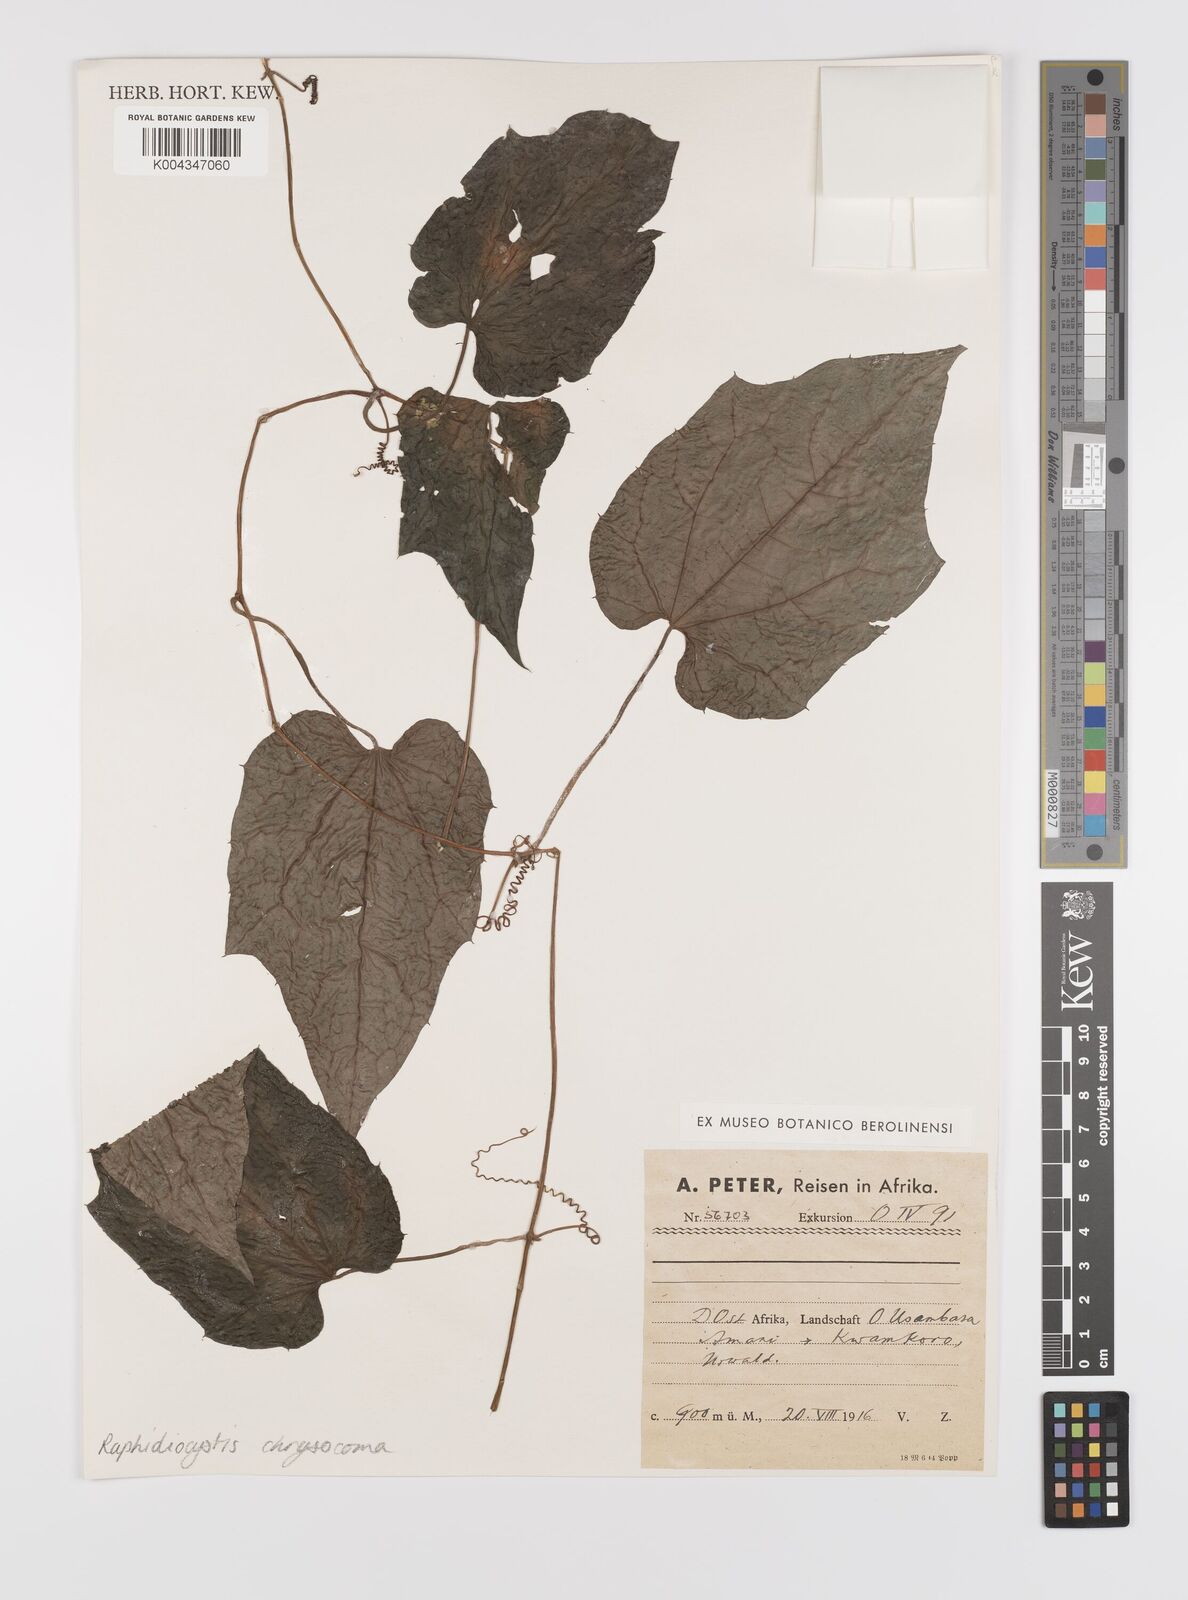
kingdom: Plantae
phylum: Tracheophyta
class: Magnoliopsida
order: Cucurbitales
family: Cucurbitaceae
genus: Raphidiocystis
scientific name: Raphidiocystis chrysocoma
